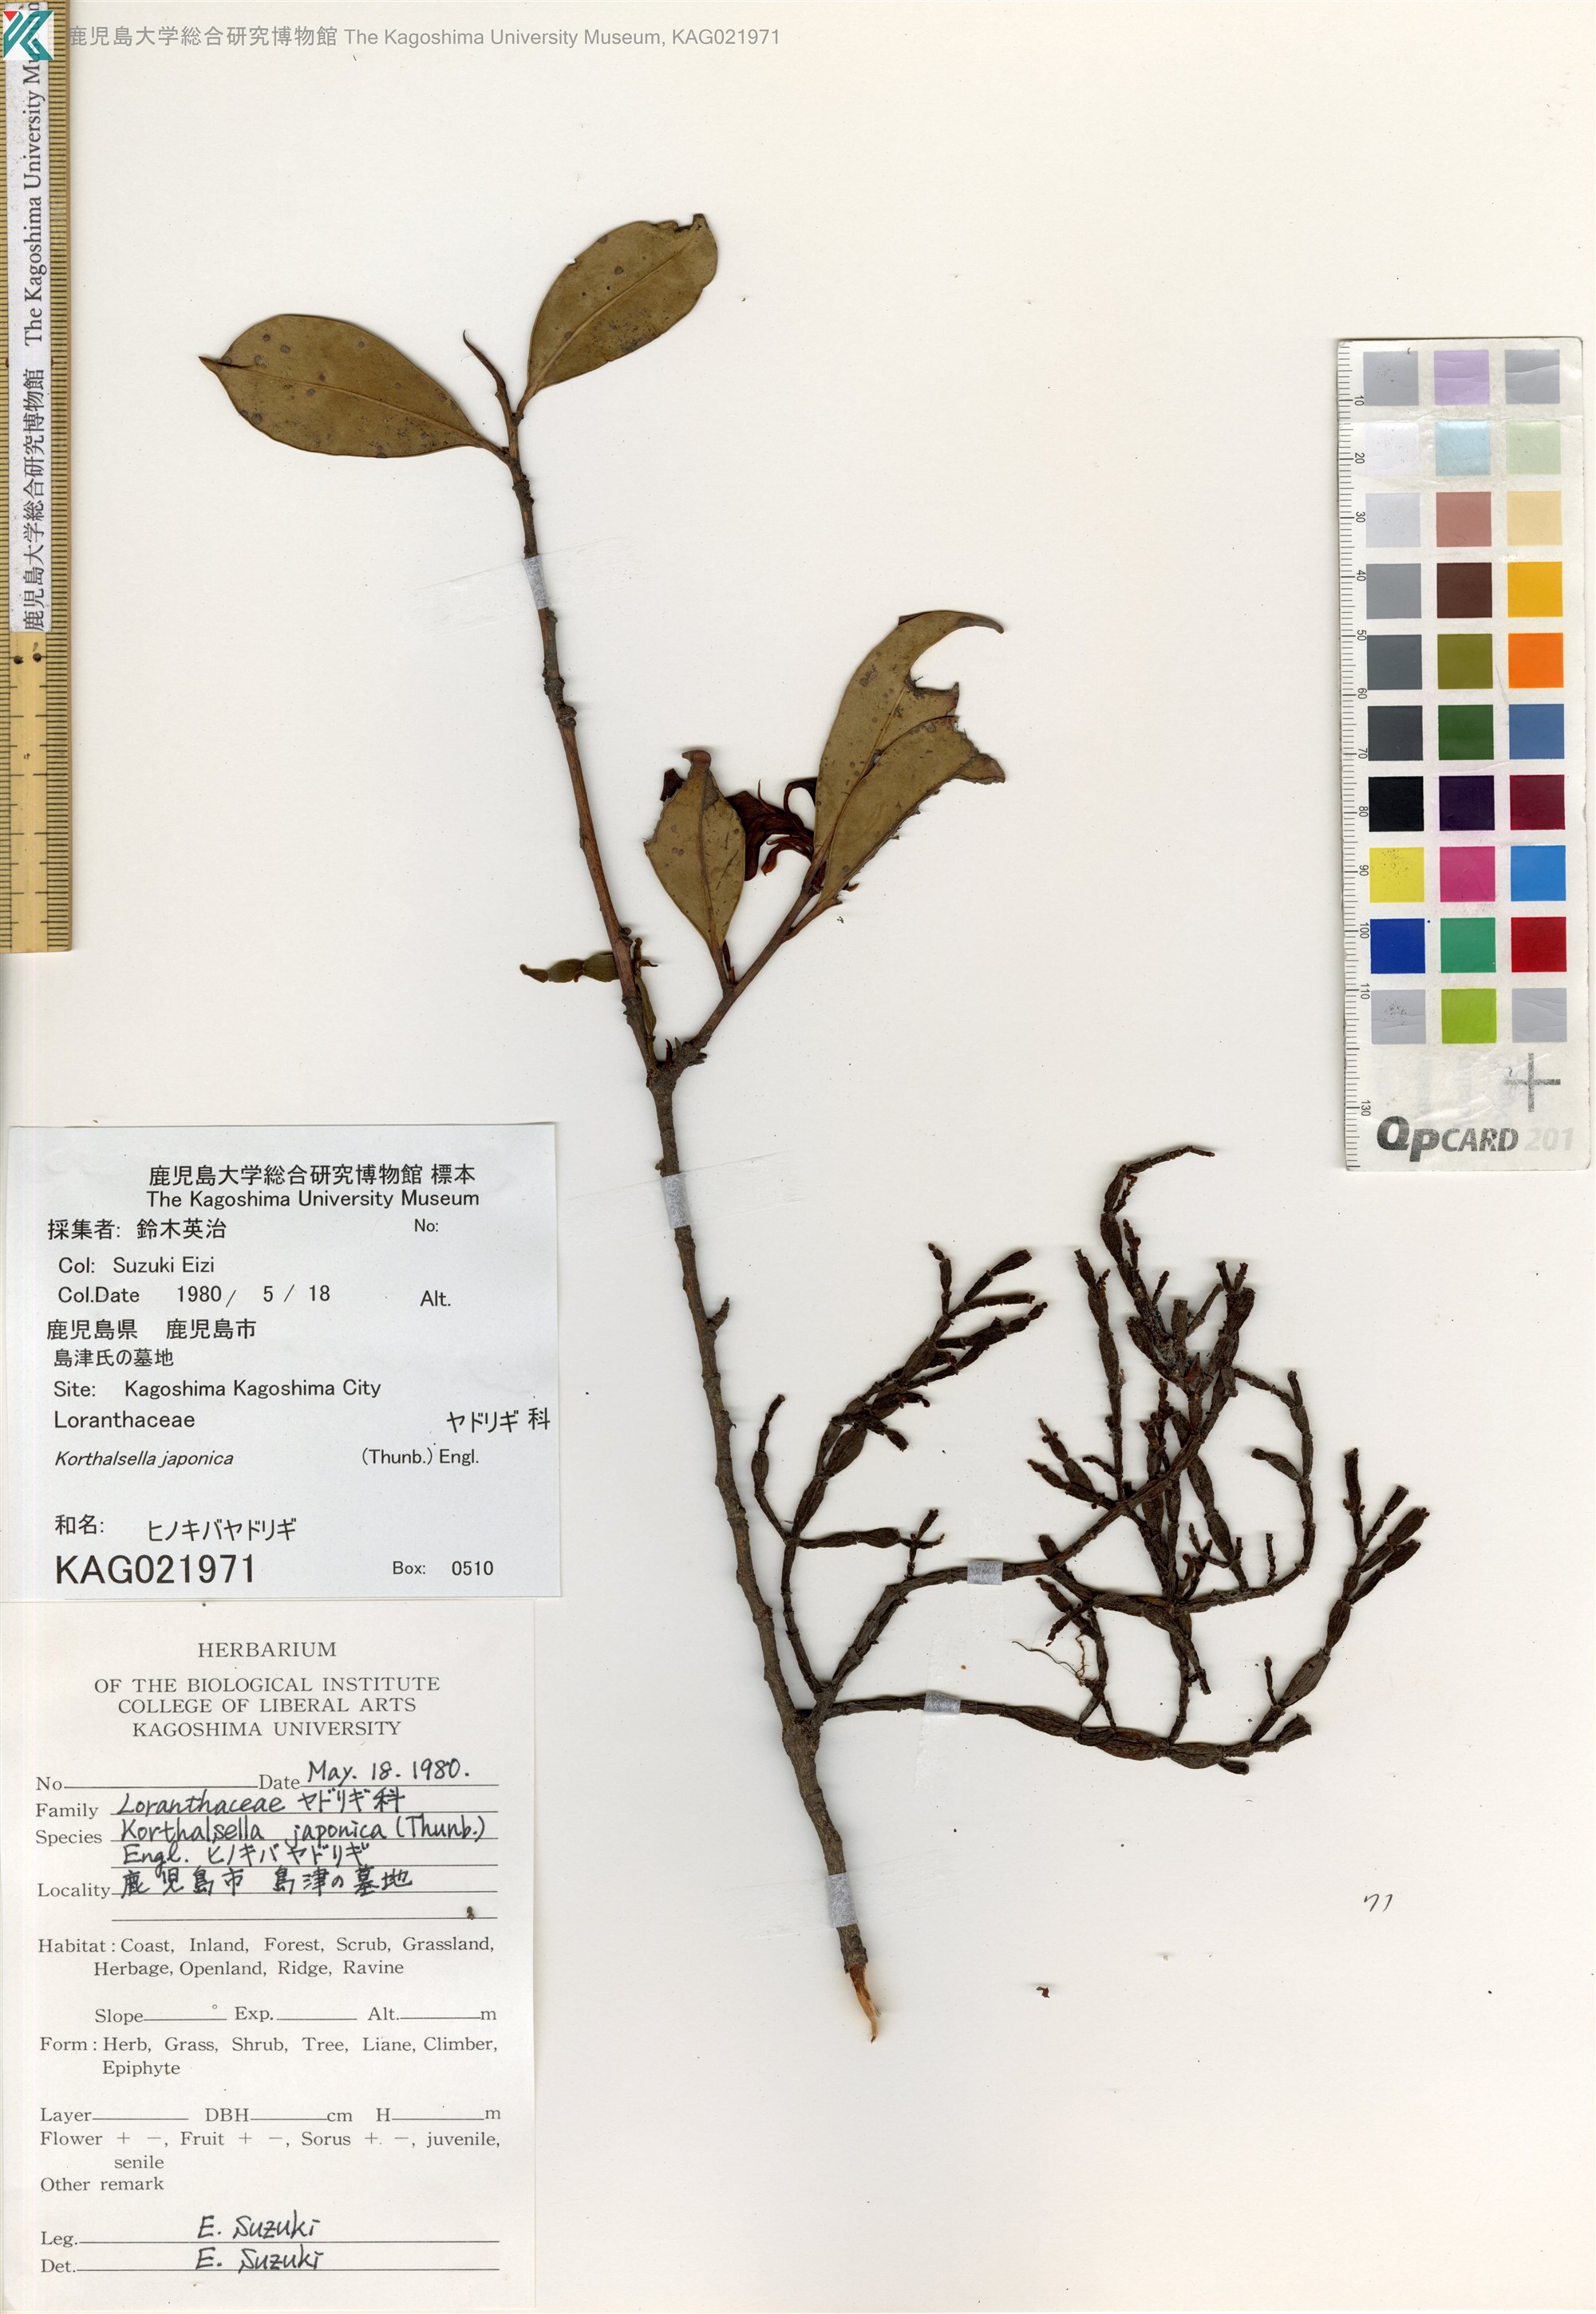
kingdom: Plantae
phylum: Tracheophyta
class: Magnoliopsida
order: Santalales
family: Viscaceae
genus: Korthalsella
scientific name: Korthalsella japonica
